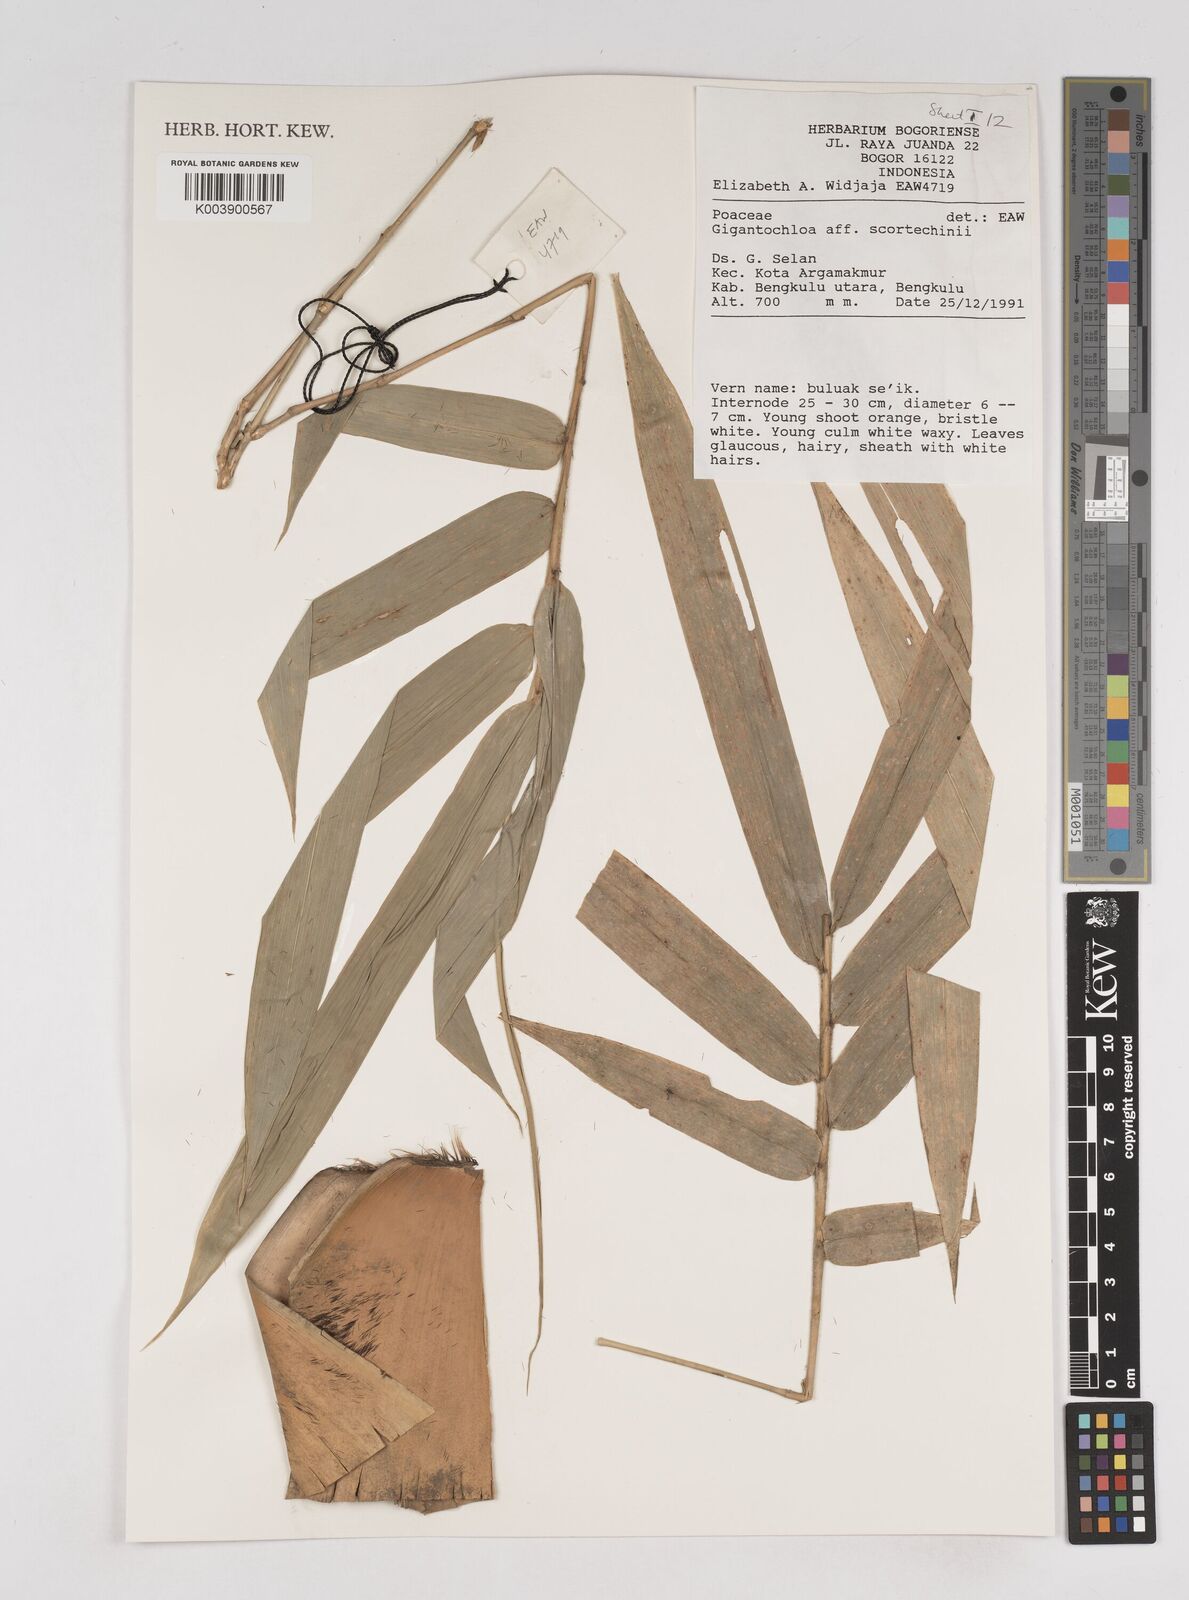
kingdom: Plantae
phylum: Tracheophyta
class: Liliopsida
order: Poales
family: Poaceae
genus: Gigantochloa
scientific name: Gigantochloa scortechinii
